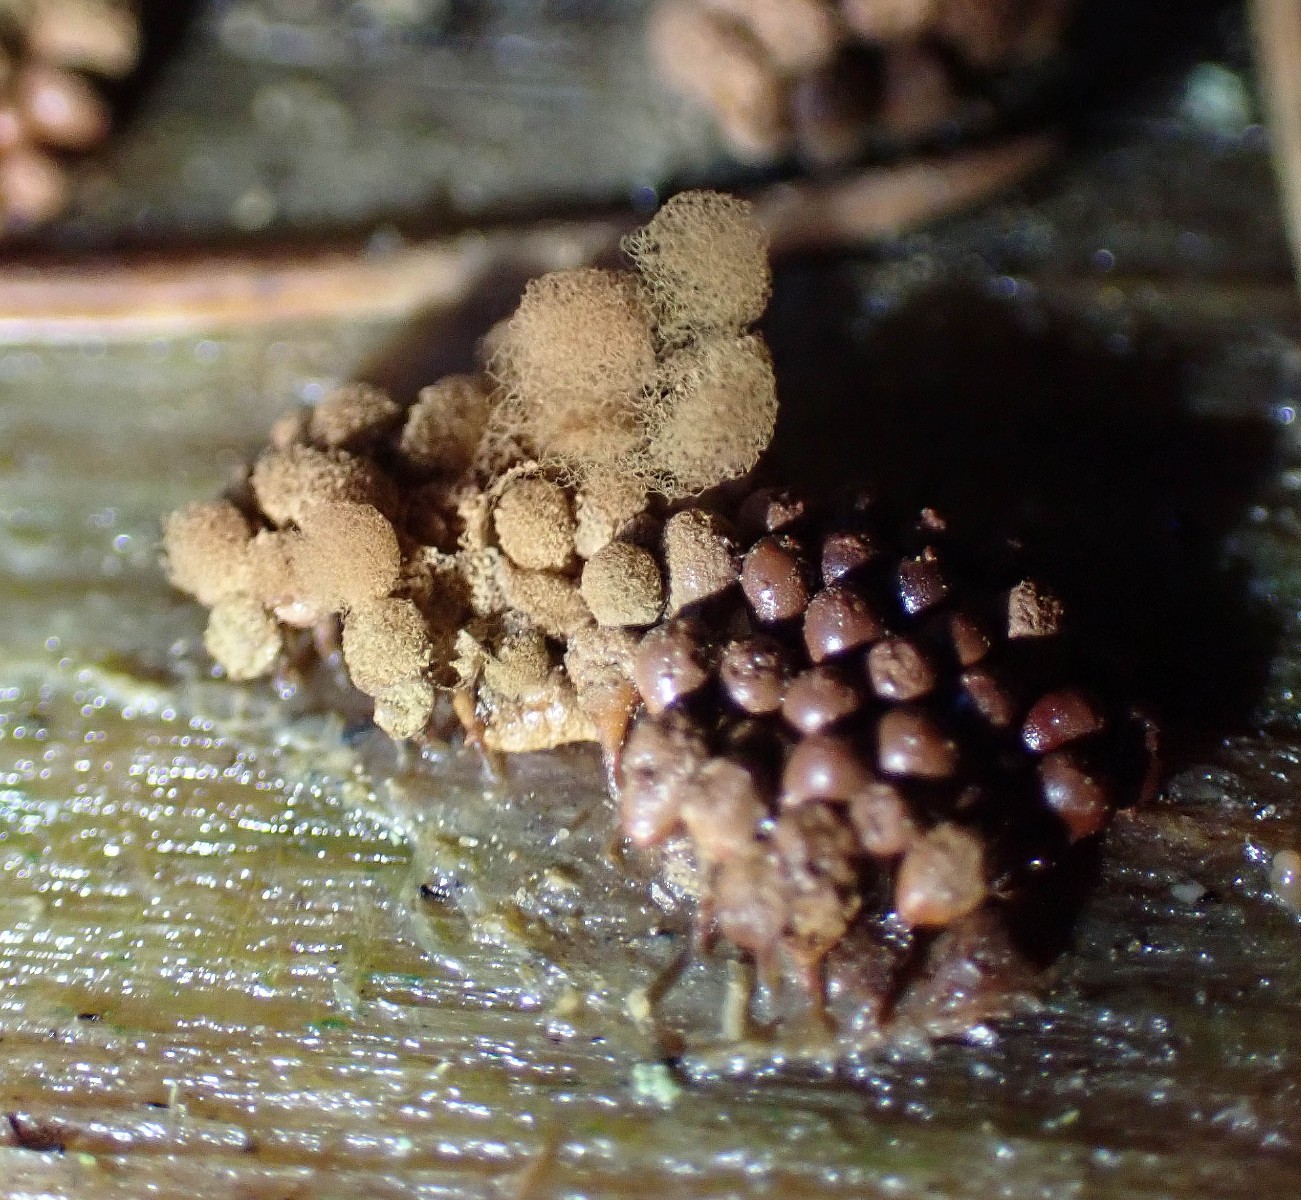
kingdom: Protozoa
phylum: Amoebozoa
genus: Arcyria
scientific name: Arcyria
